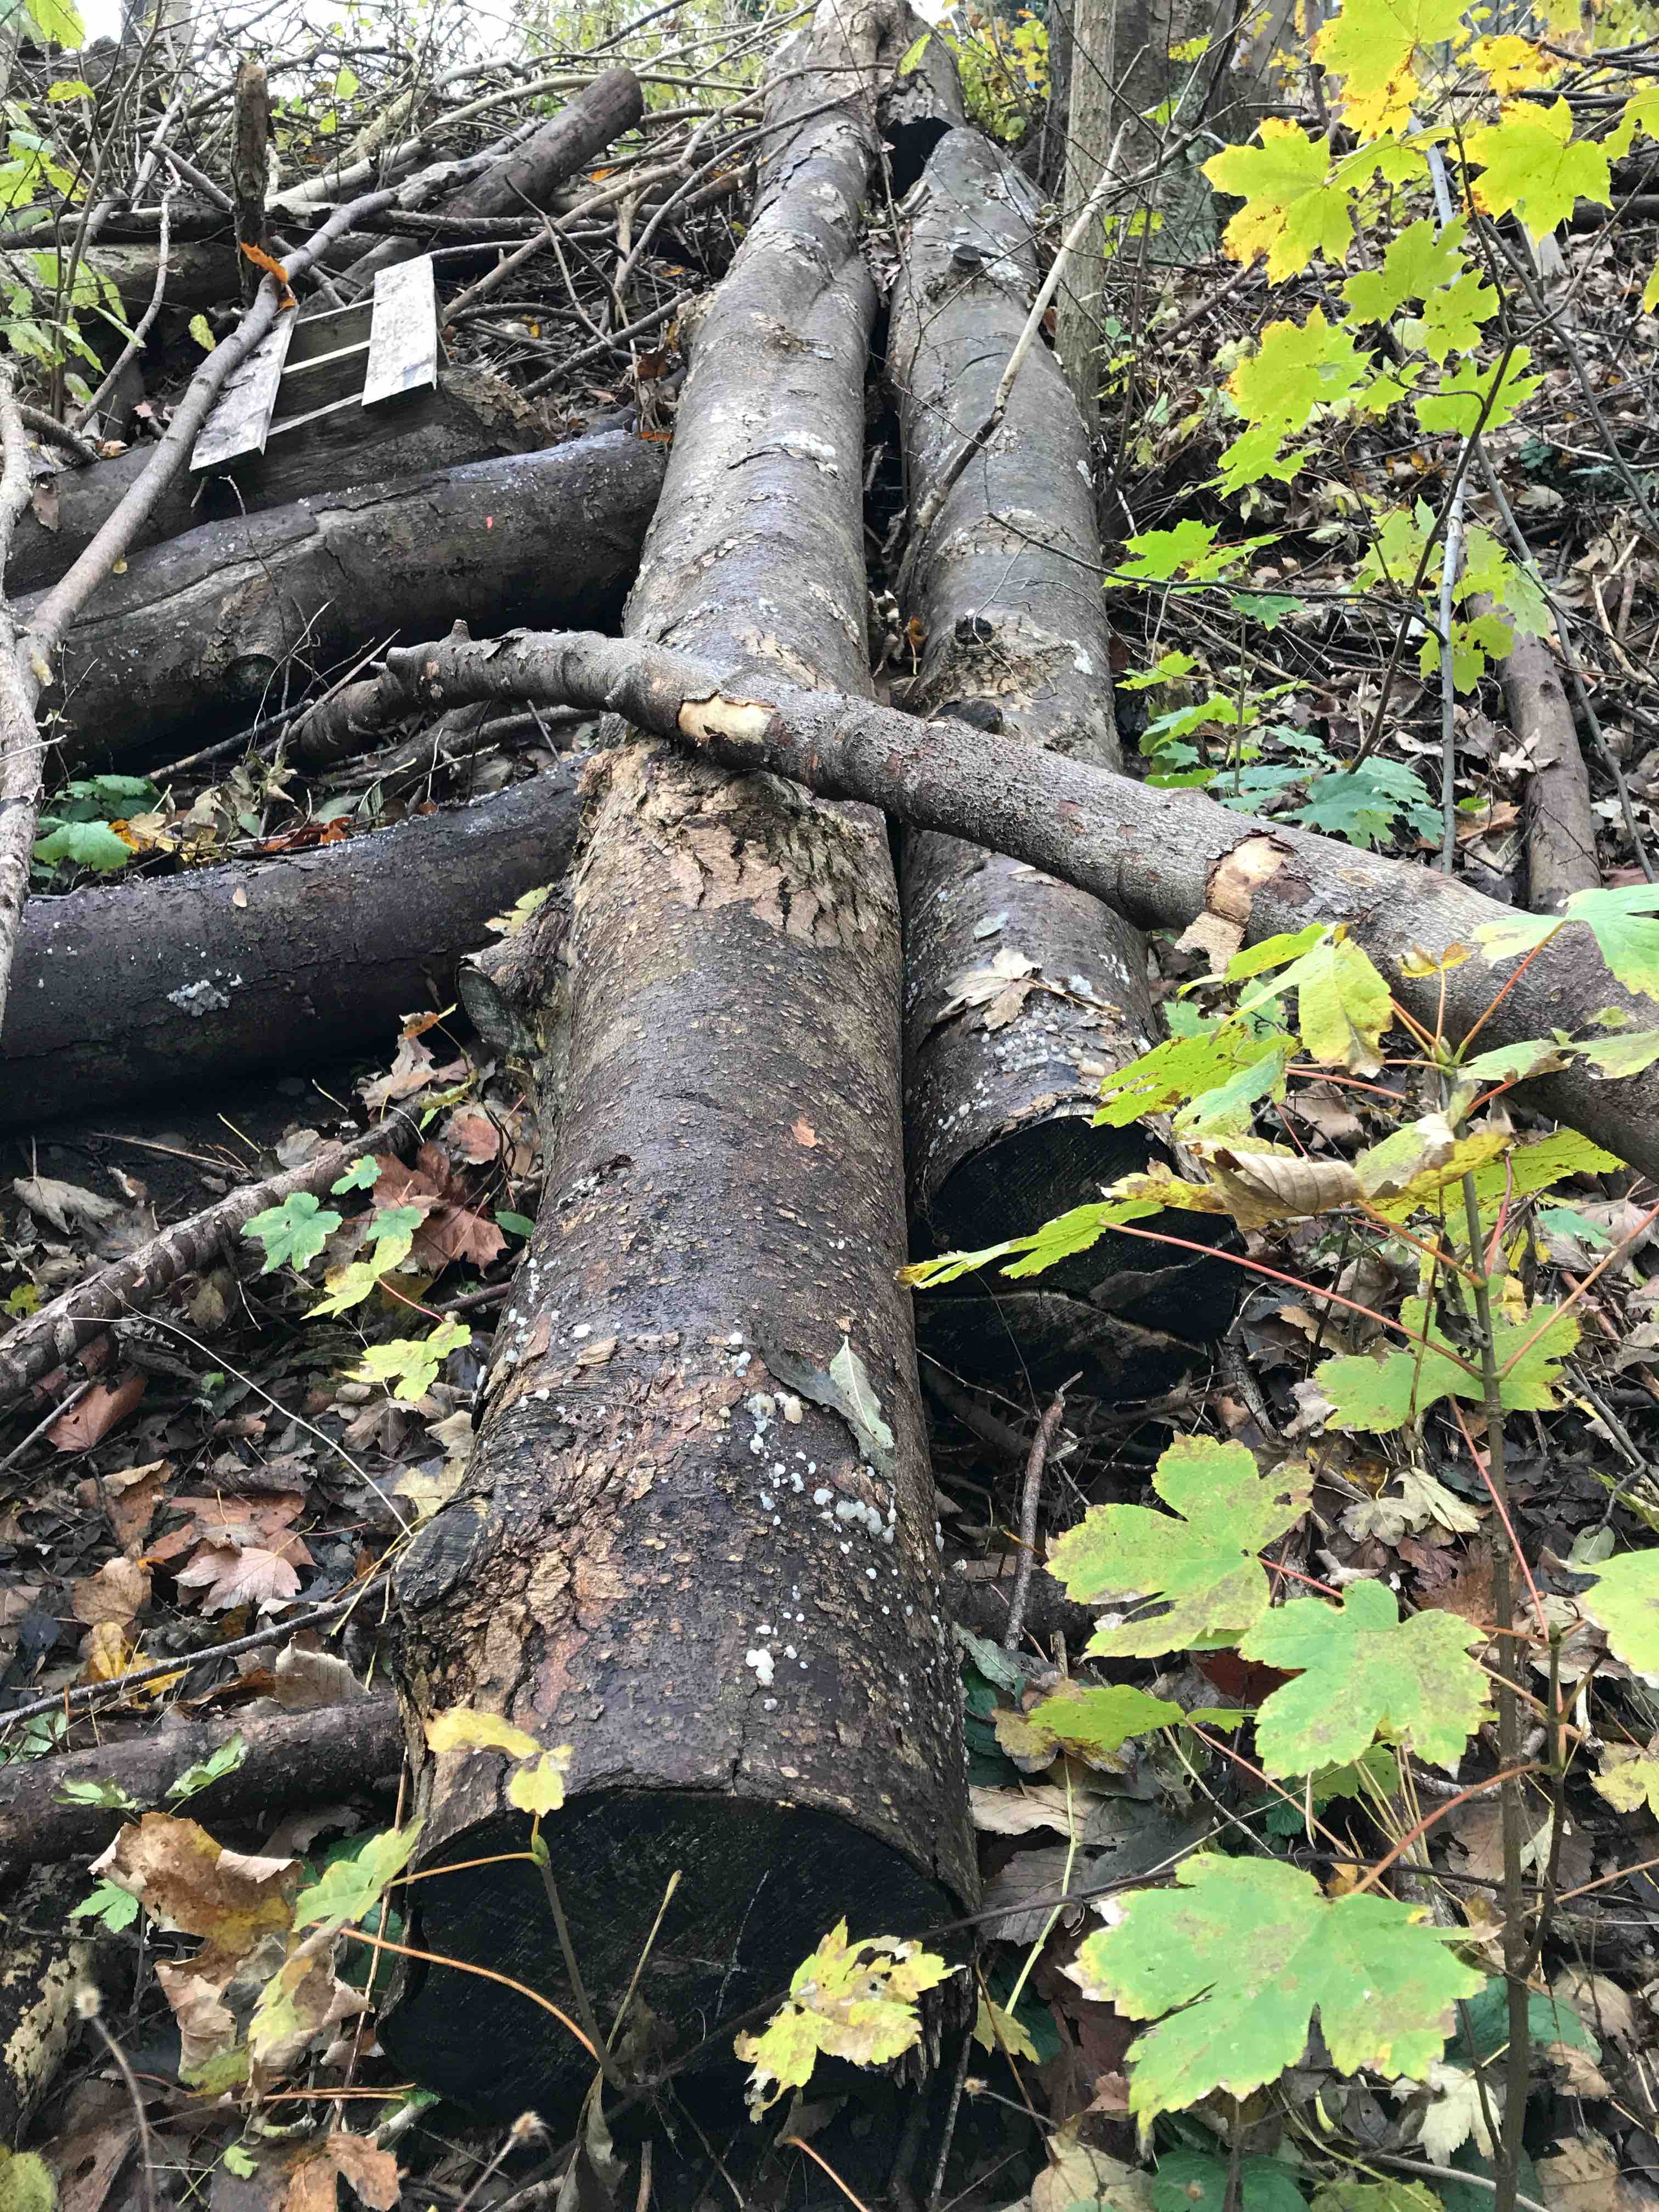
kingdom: Fungi
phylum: Basidiomycota
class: Agaricomycetes
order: Auriculariales
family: Hyaloriaceae
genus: Myxarium
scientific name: Myxarium nucleatum
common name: klar bævretop
